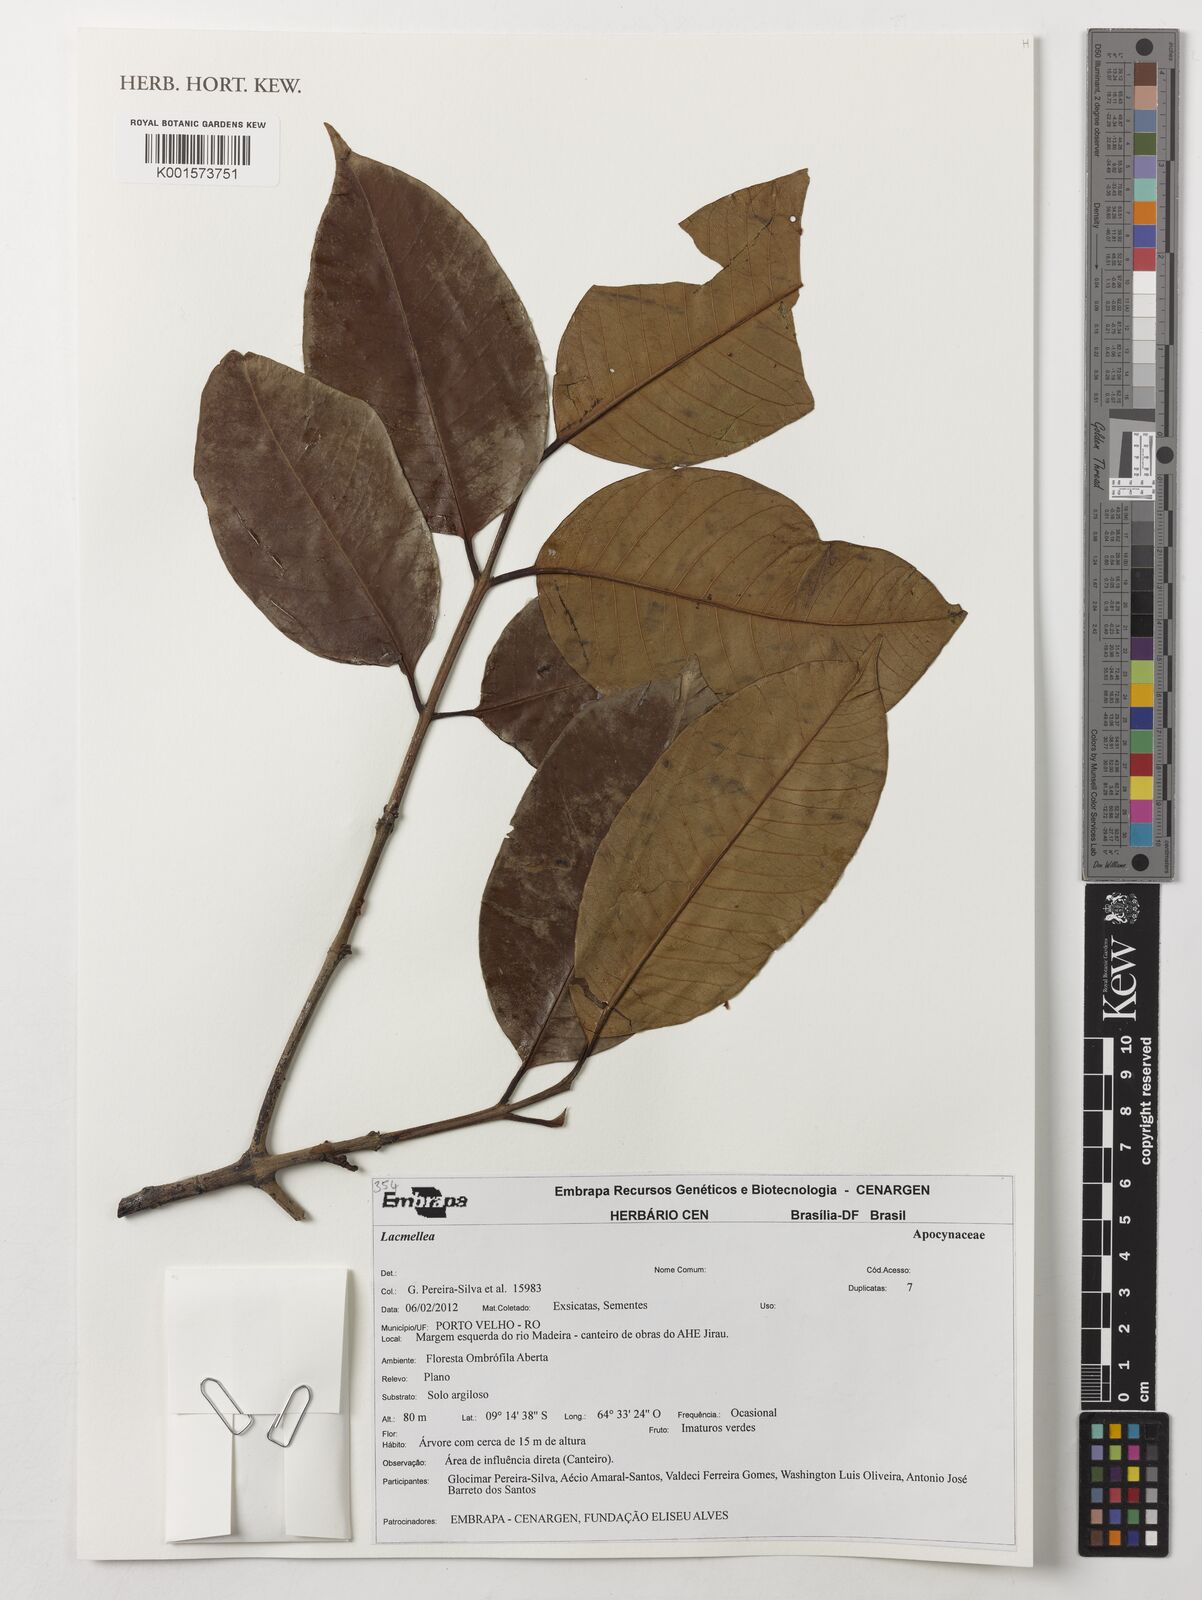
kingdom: Plantae
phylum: Tracheophyta
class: Magnoliopsida
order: Gentianales
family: Apocynaceae
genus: Lacmellea
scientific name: Lacmellea
